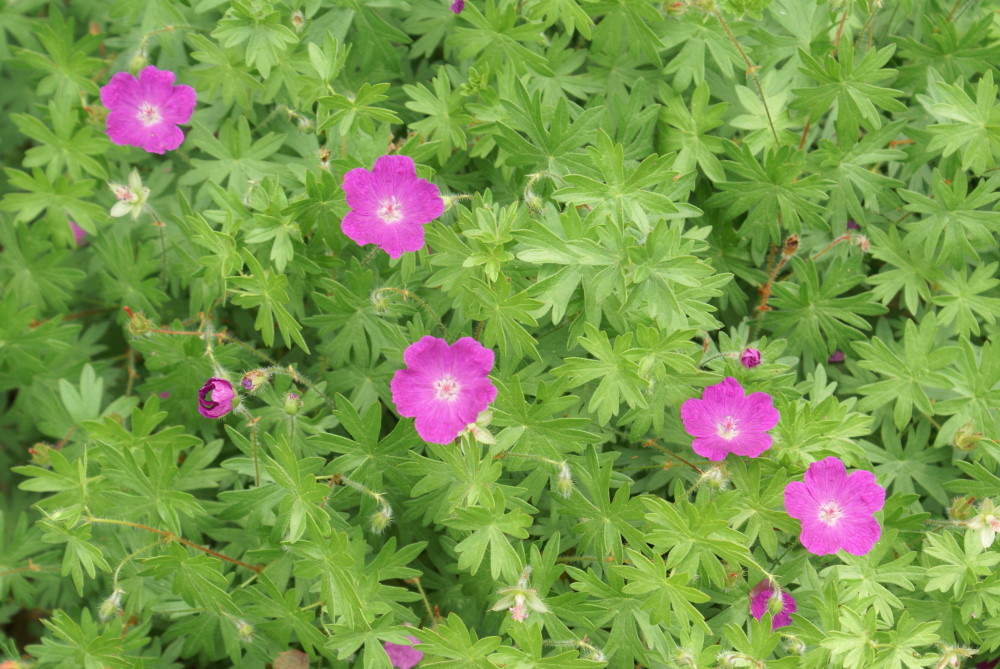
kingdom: Plantae
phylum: Tracheophyta
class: Magnoliopsida
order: Geraniales
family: Geraniaceae
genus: Geranium
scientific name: Geranium sanguineum
